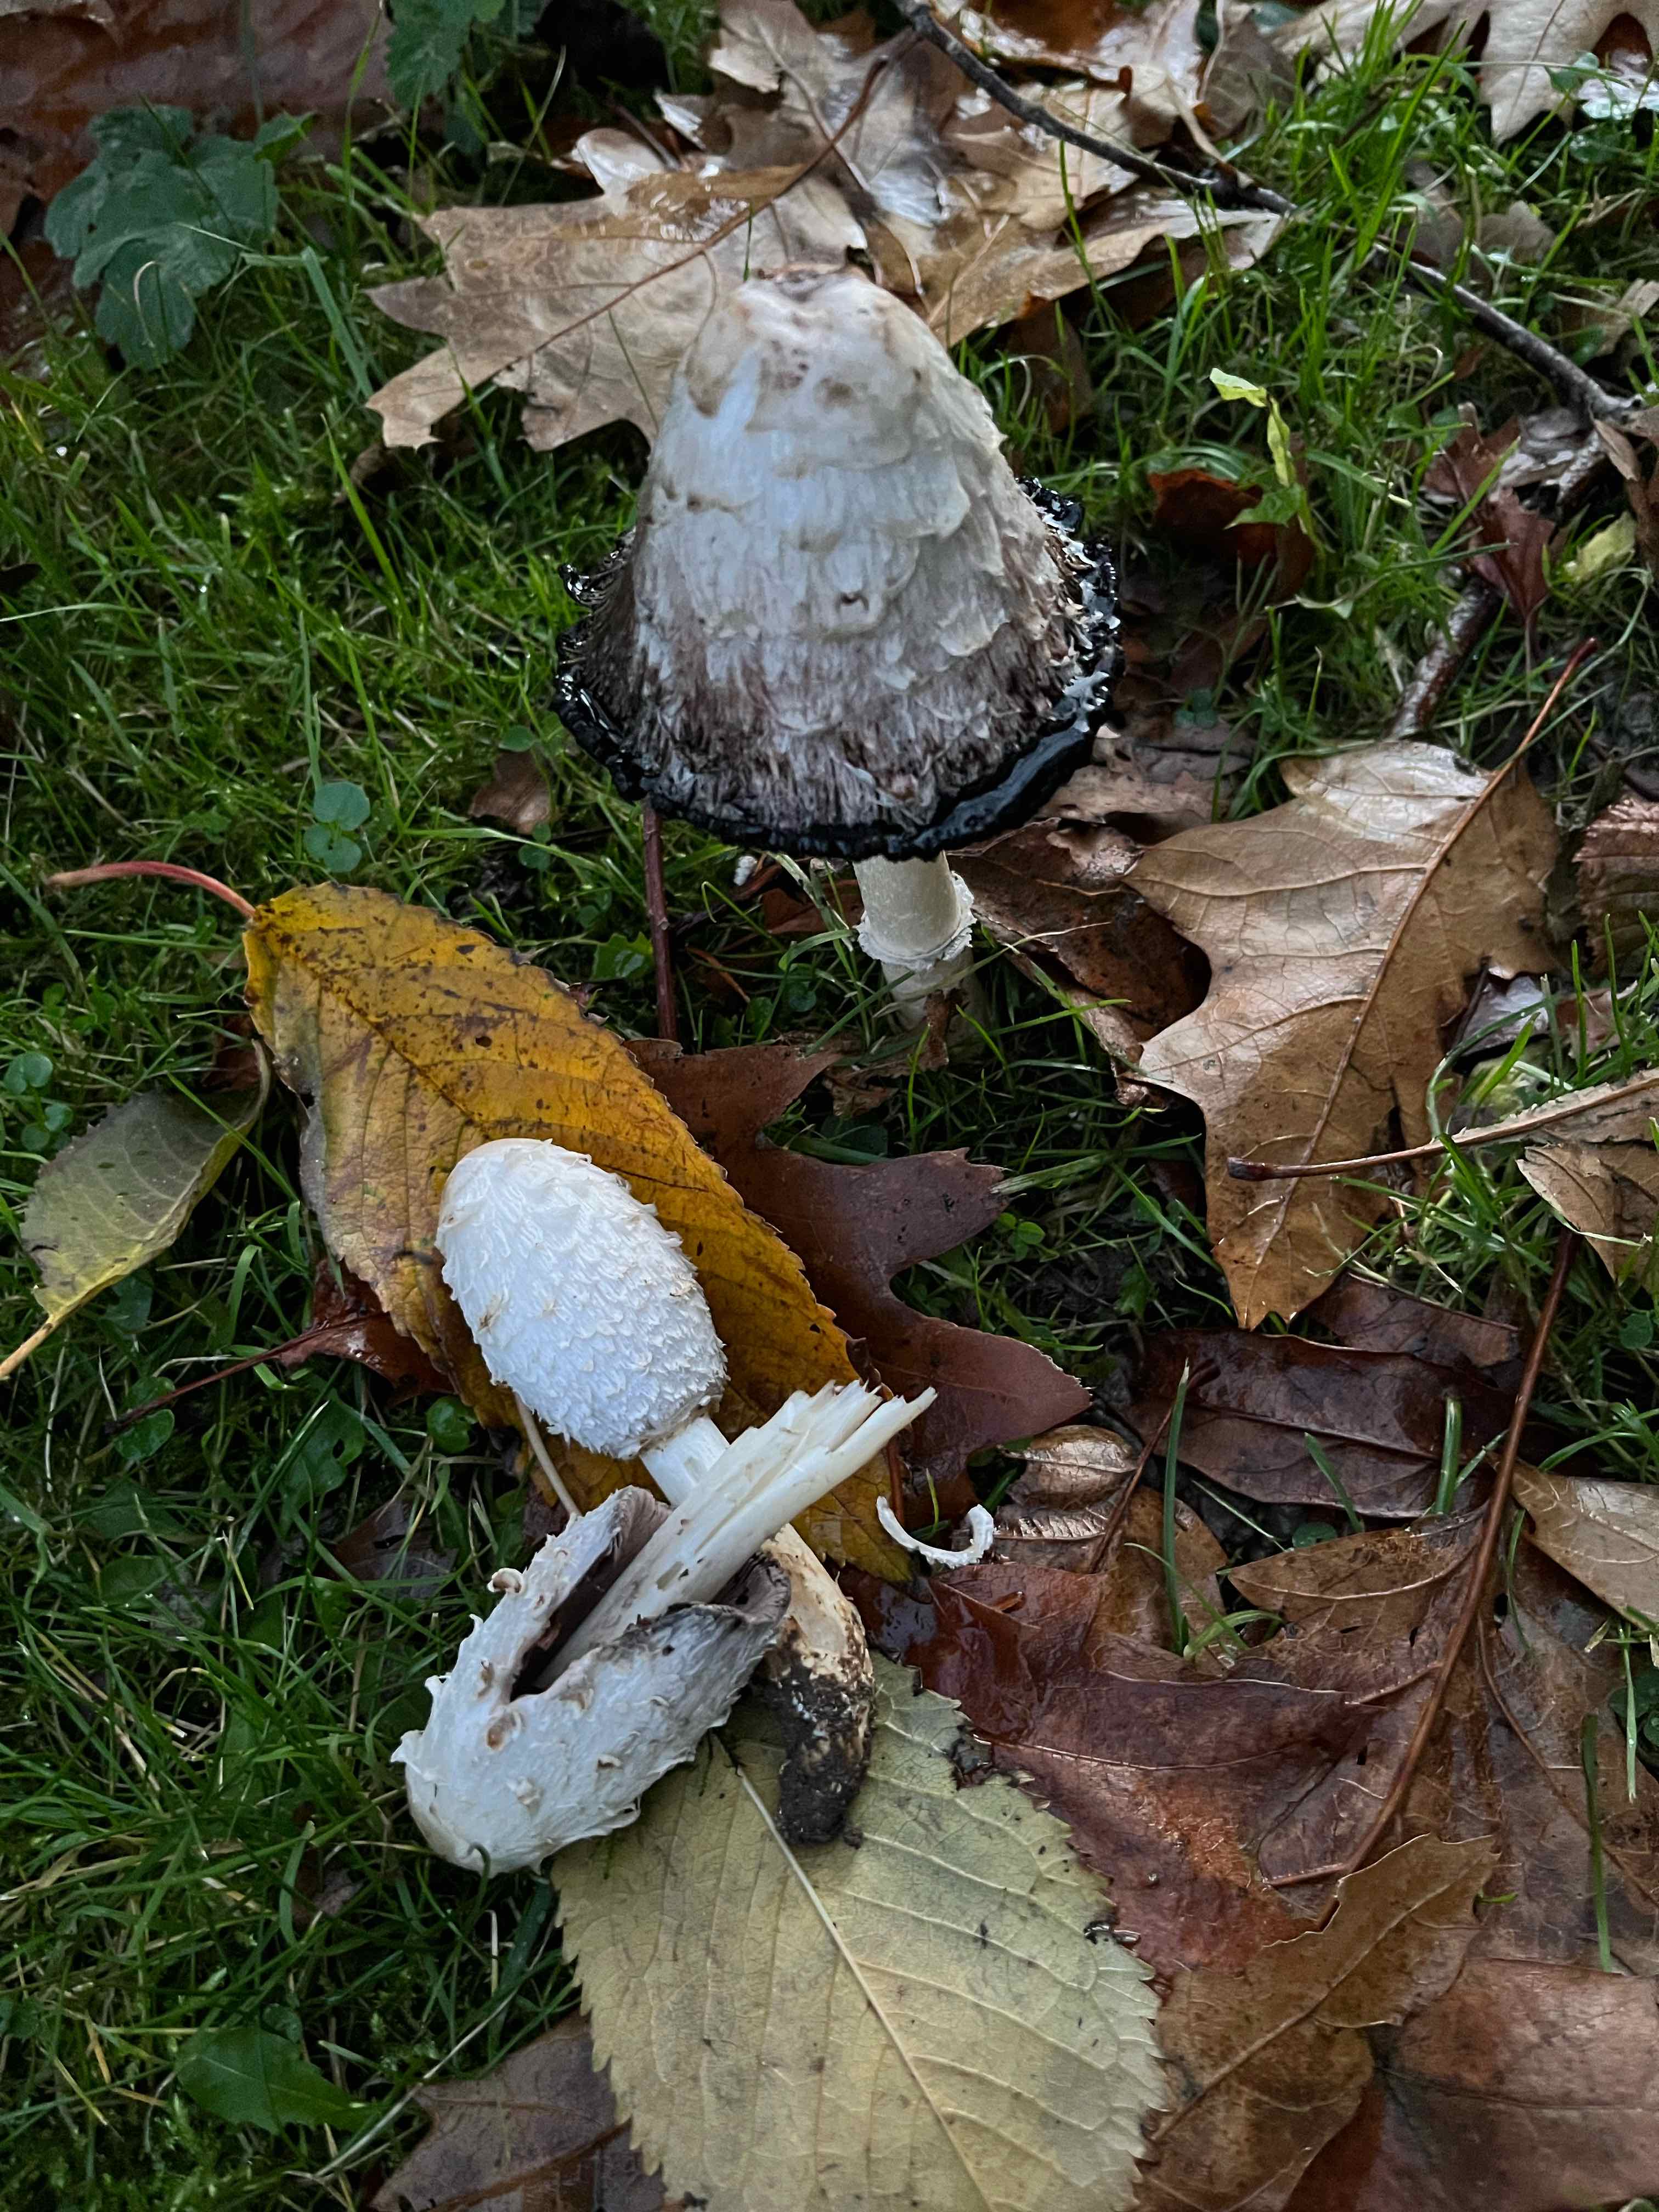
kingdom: Fungi
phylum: Basidiomycota
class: Agaricomycetes
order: Agaricales
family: Agaricaceae
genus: Coprinus
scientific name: Coprinus comatus
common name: stor parykhat
